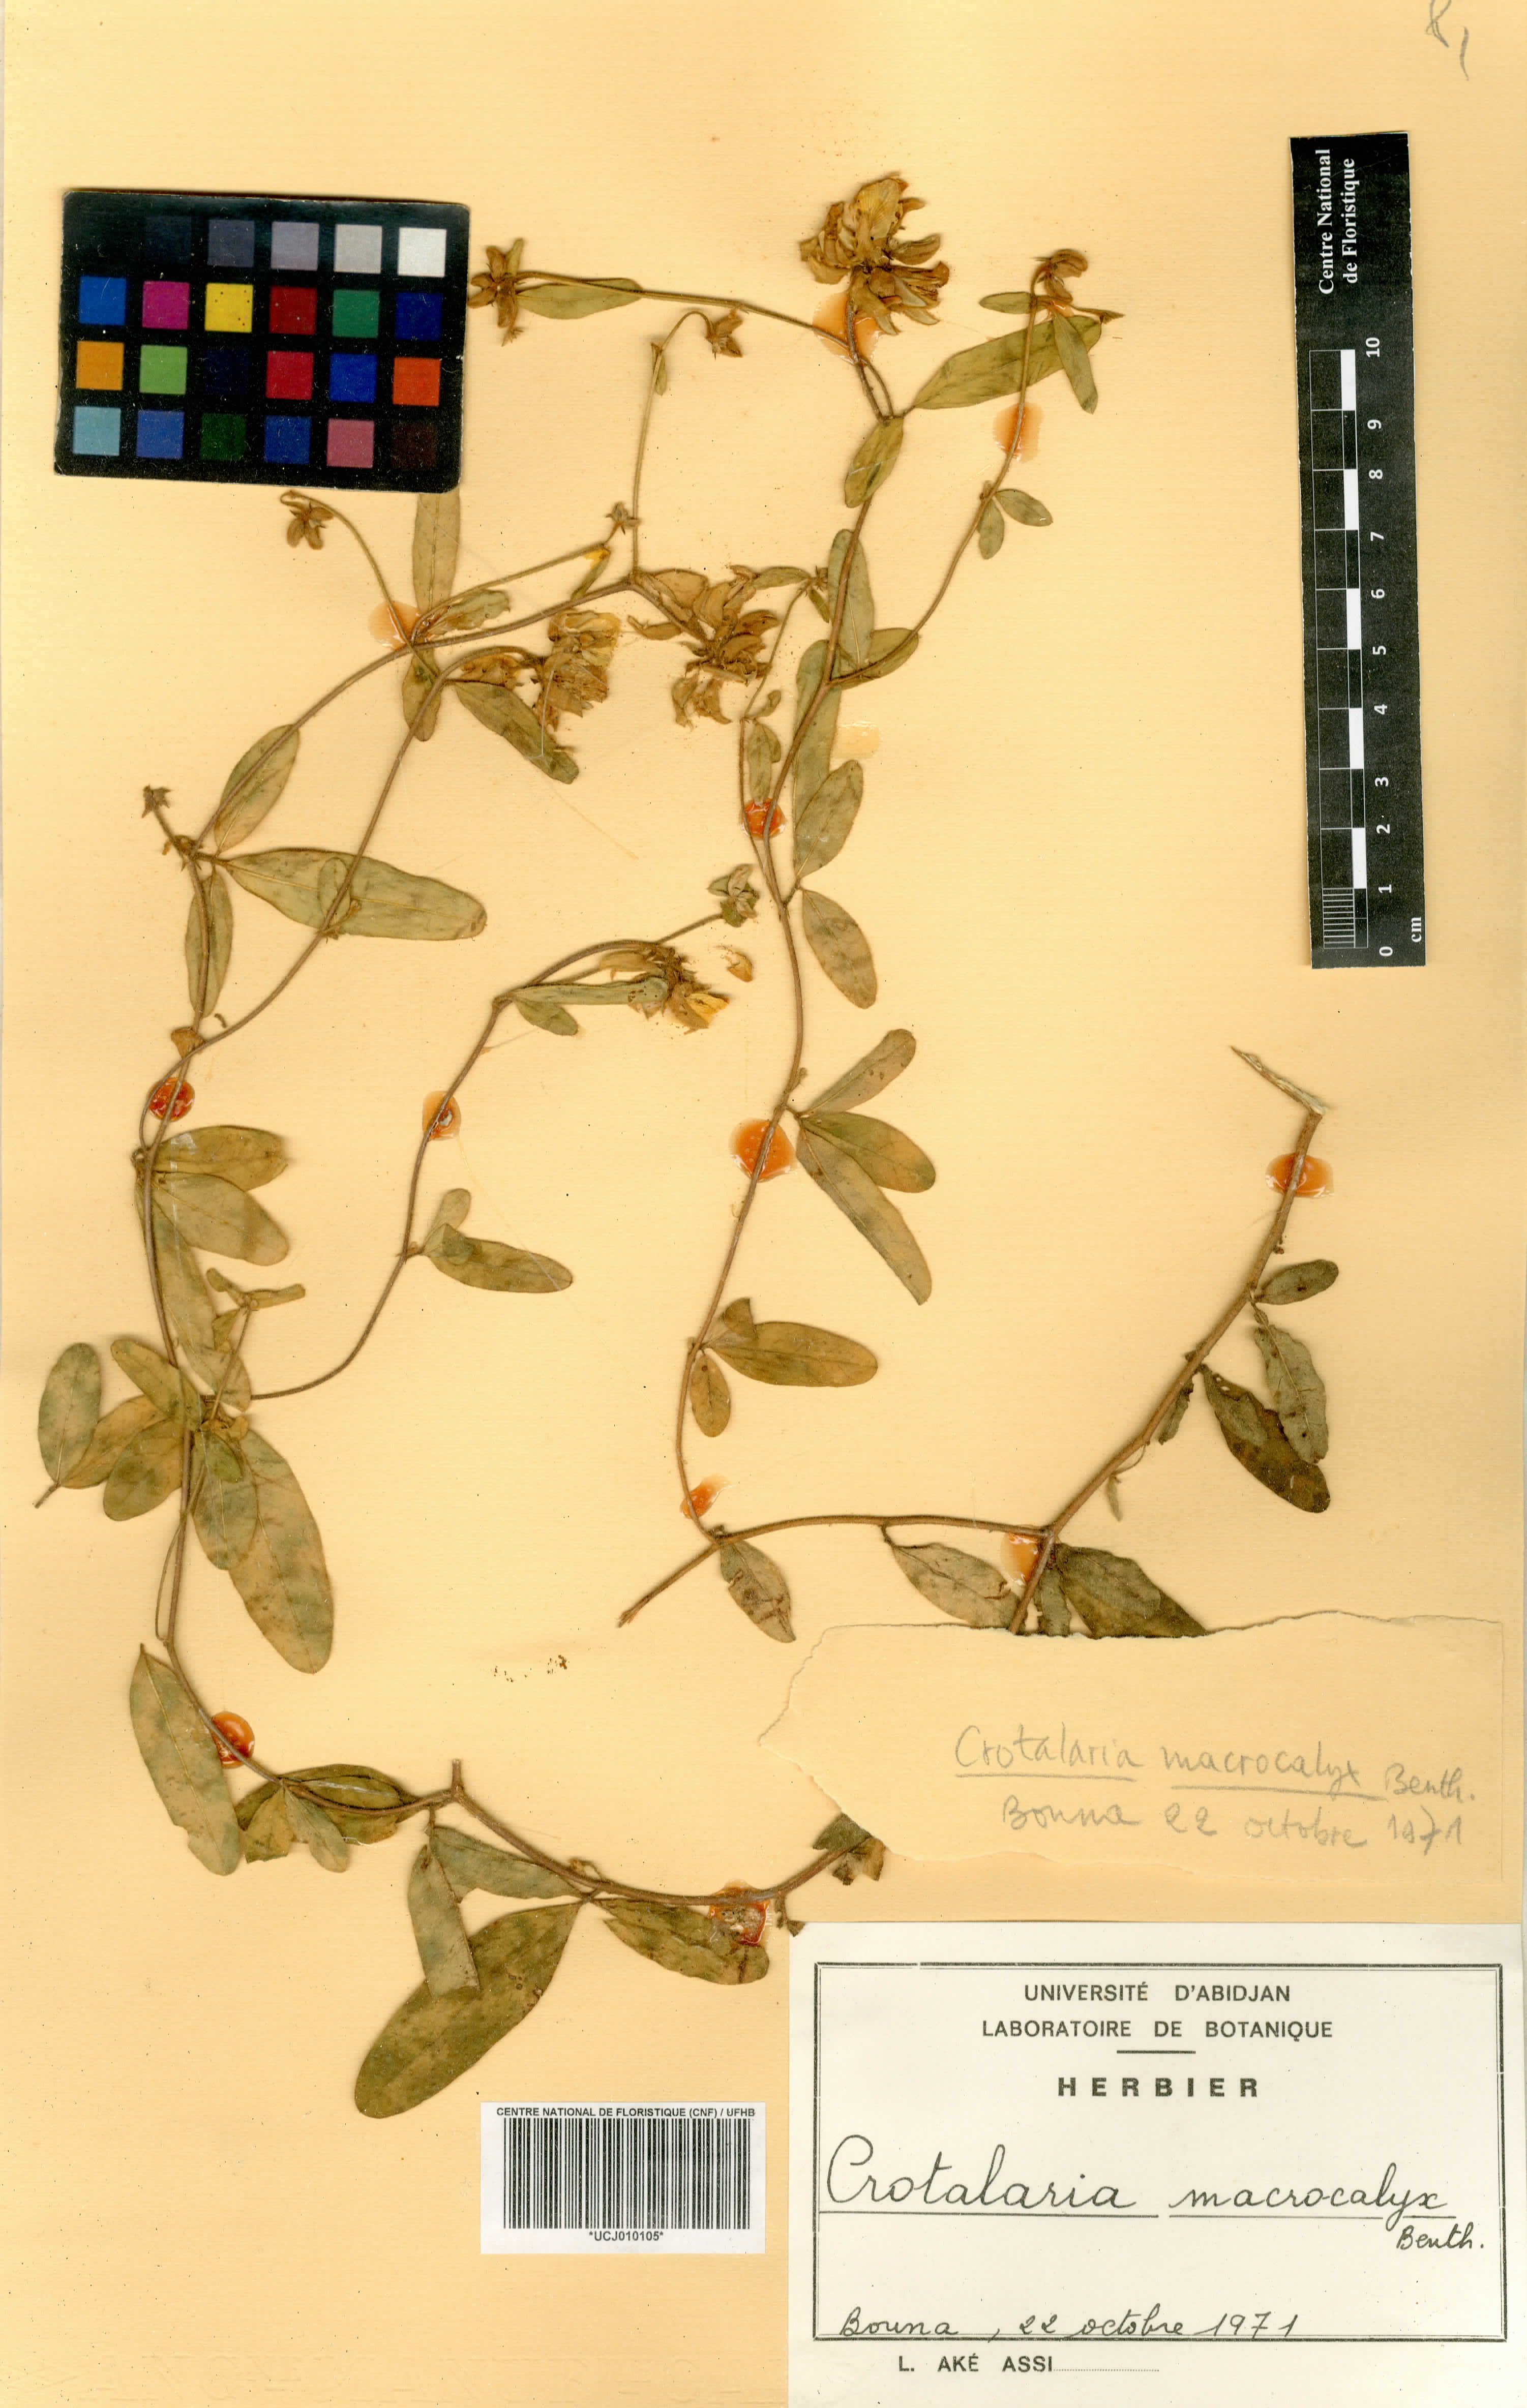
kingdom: Plantae
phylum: Tracheophyta
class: Magnoliopsida
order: Fabales
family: Fabaceae
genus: Crotalaria
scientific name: Crotalaria macrocalyx
